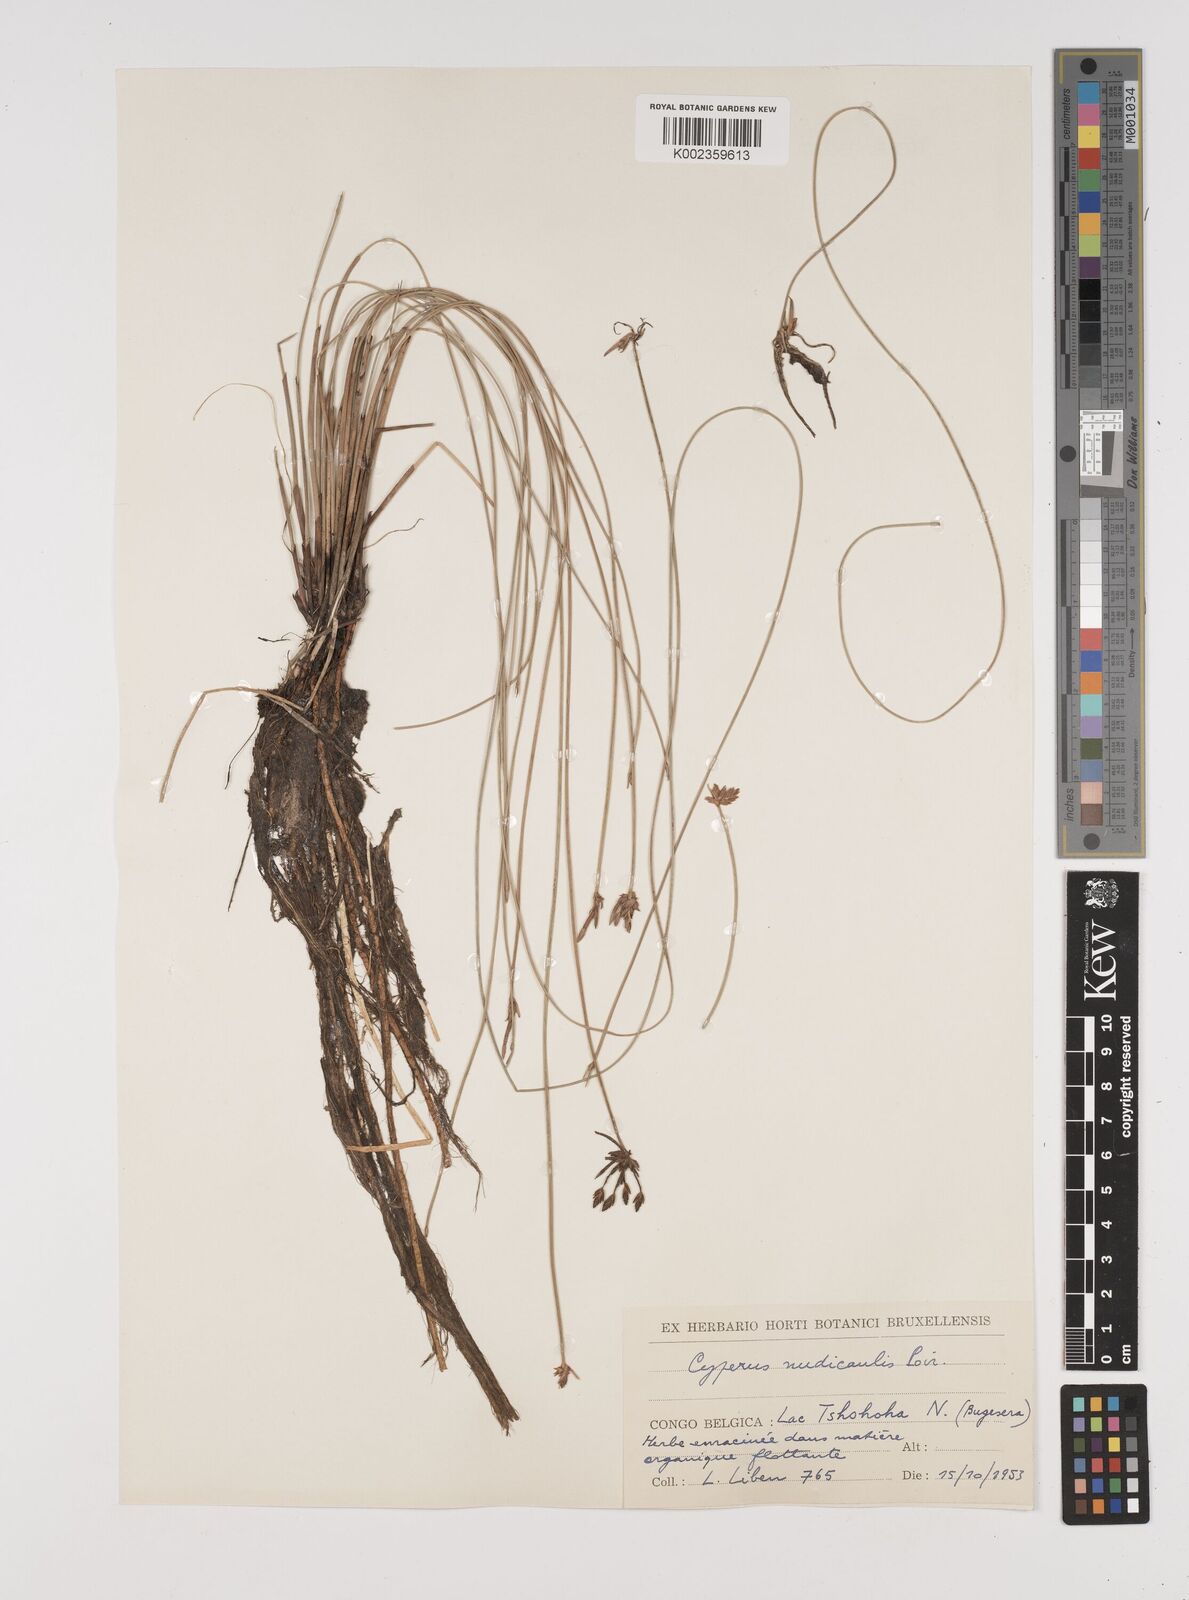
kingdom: Plantae
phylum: Tracheophyta
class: Liliopsida
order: Poales
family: Cyperaceae
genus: Cyperus
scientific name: Cyperus pectinatus
